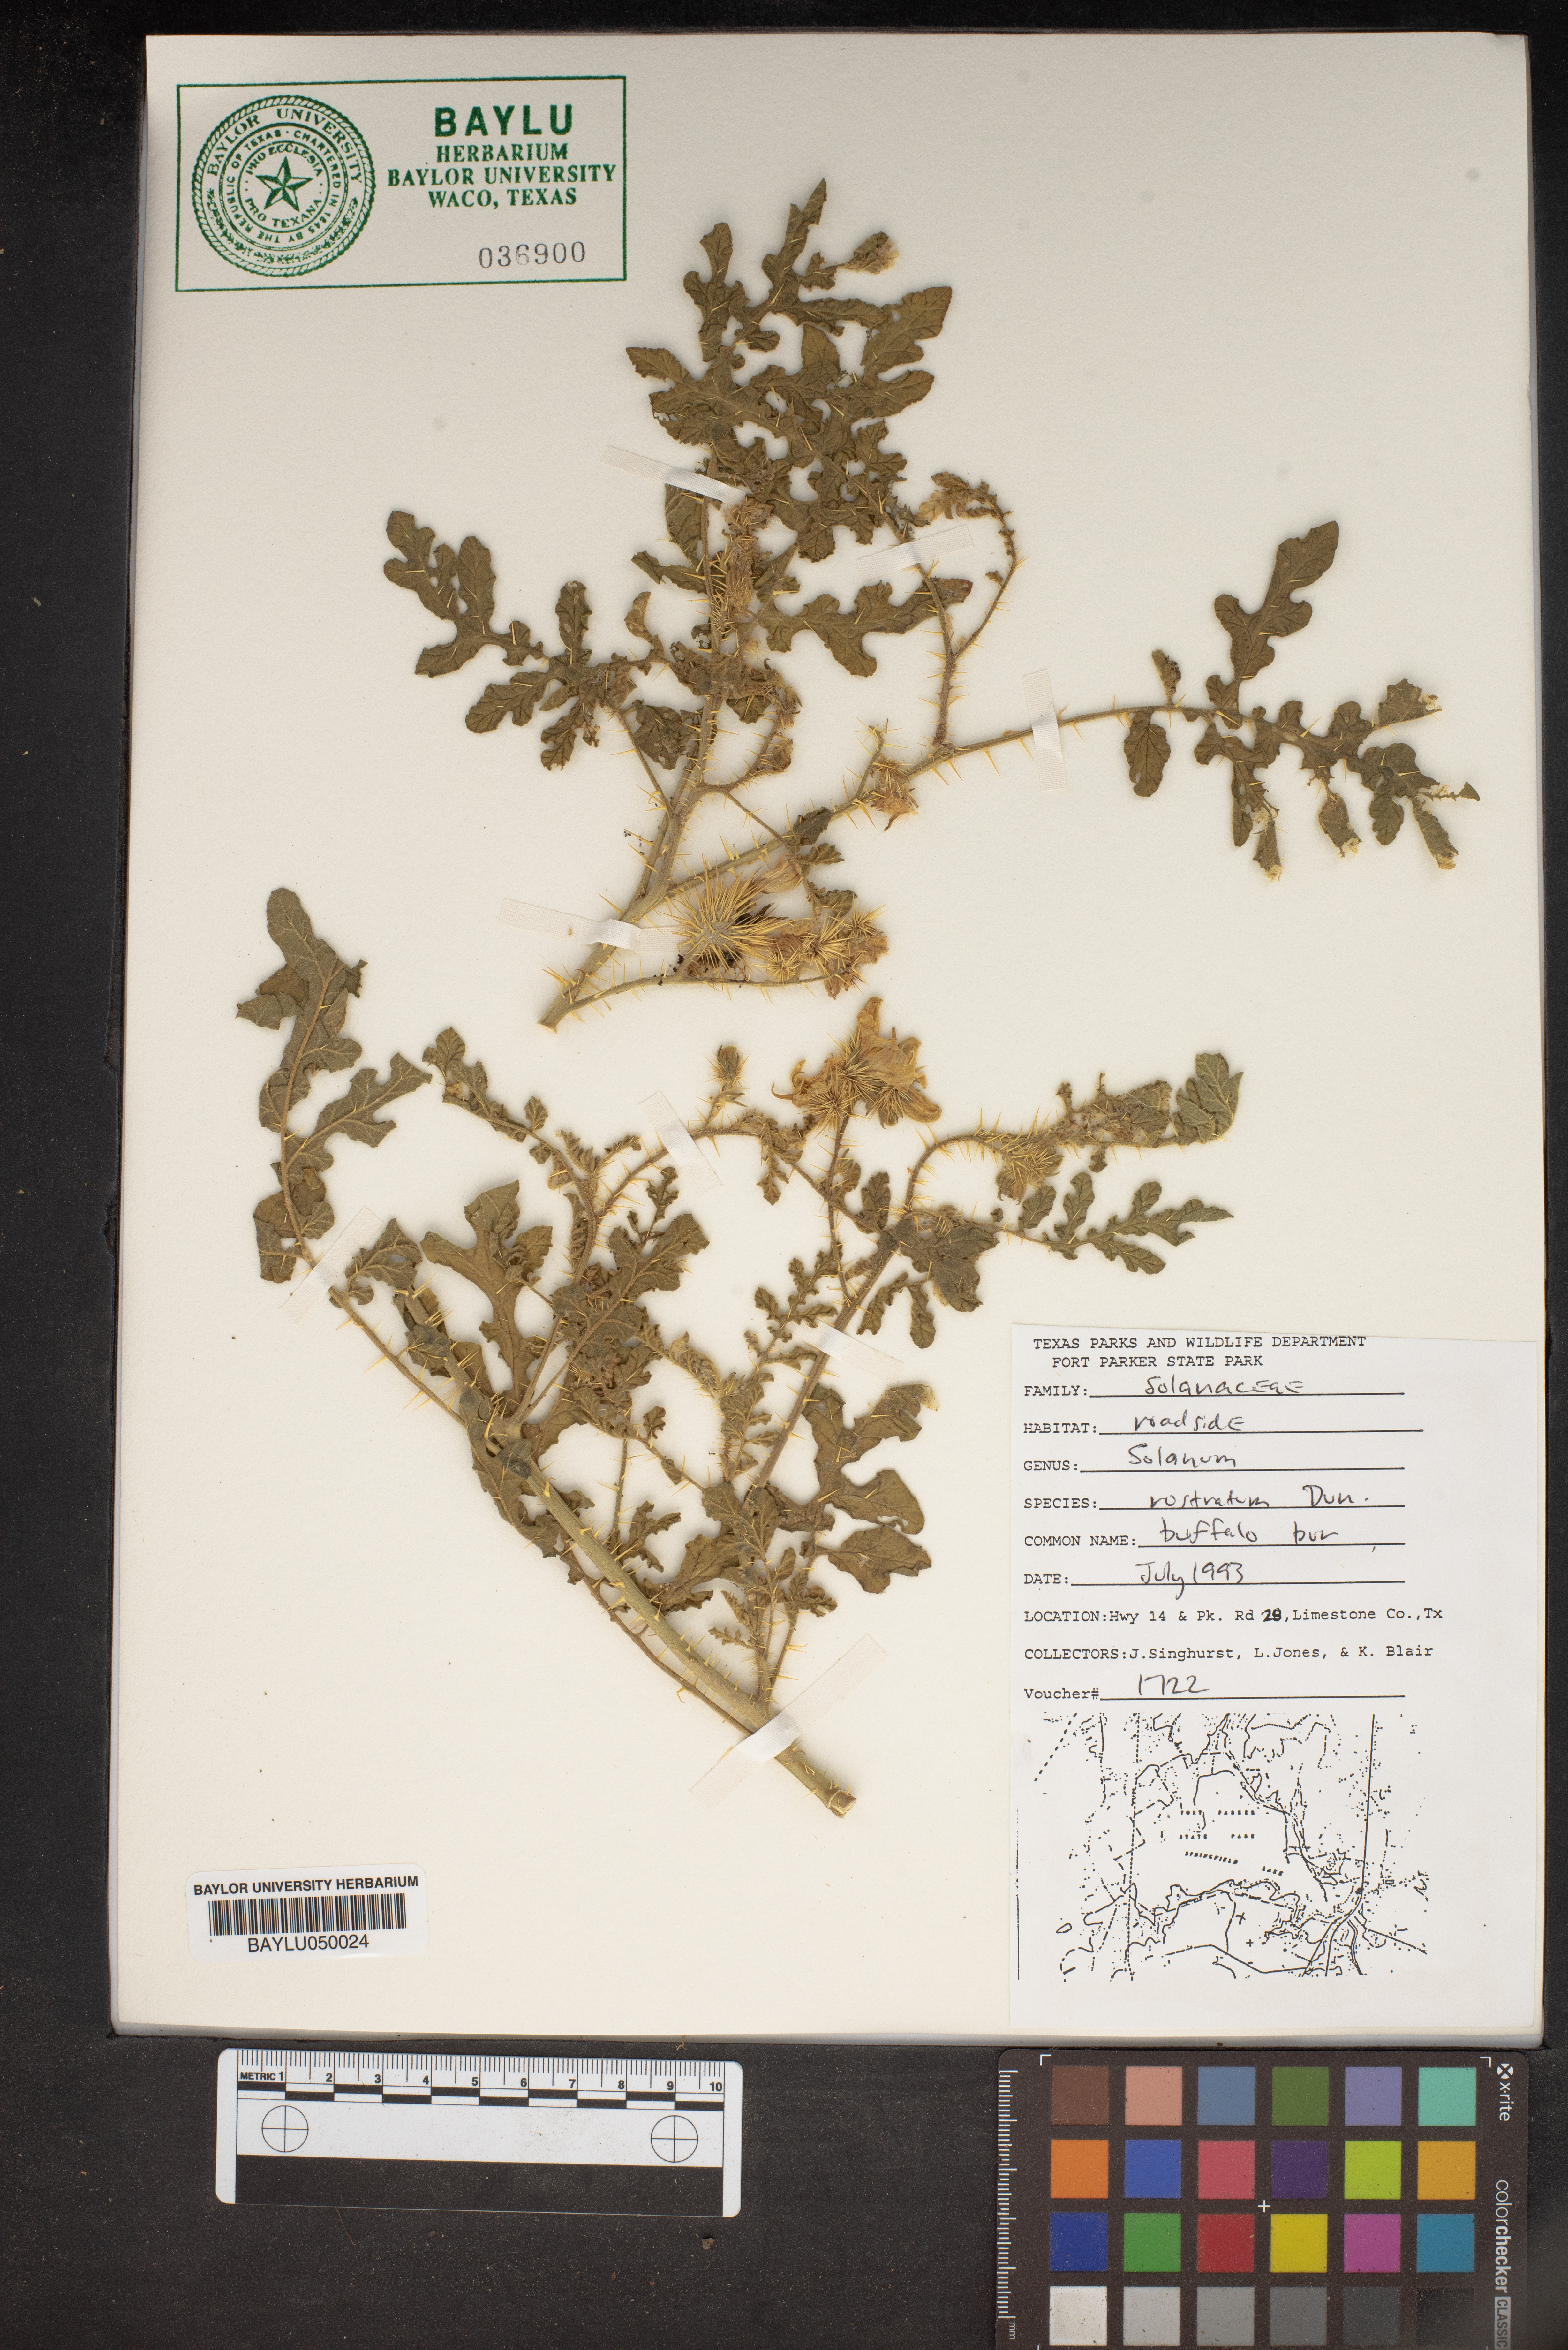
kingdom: Plantae
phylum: Tracheophyta
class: Magnoliopsida
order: Solanales
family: Solanaceae
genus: Solanum
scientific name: Solanum
